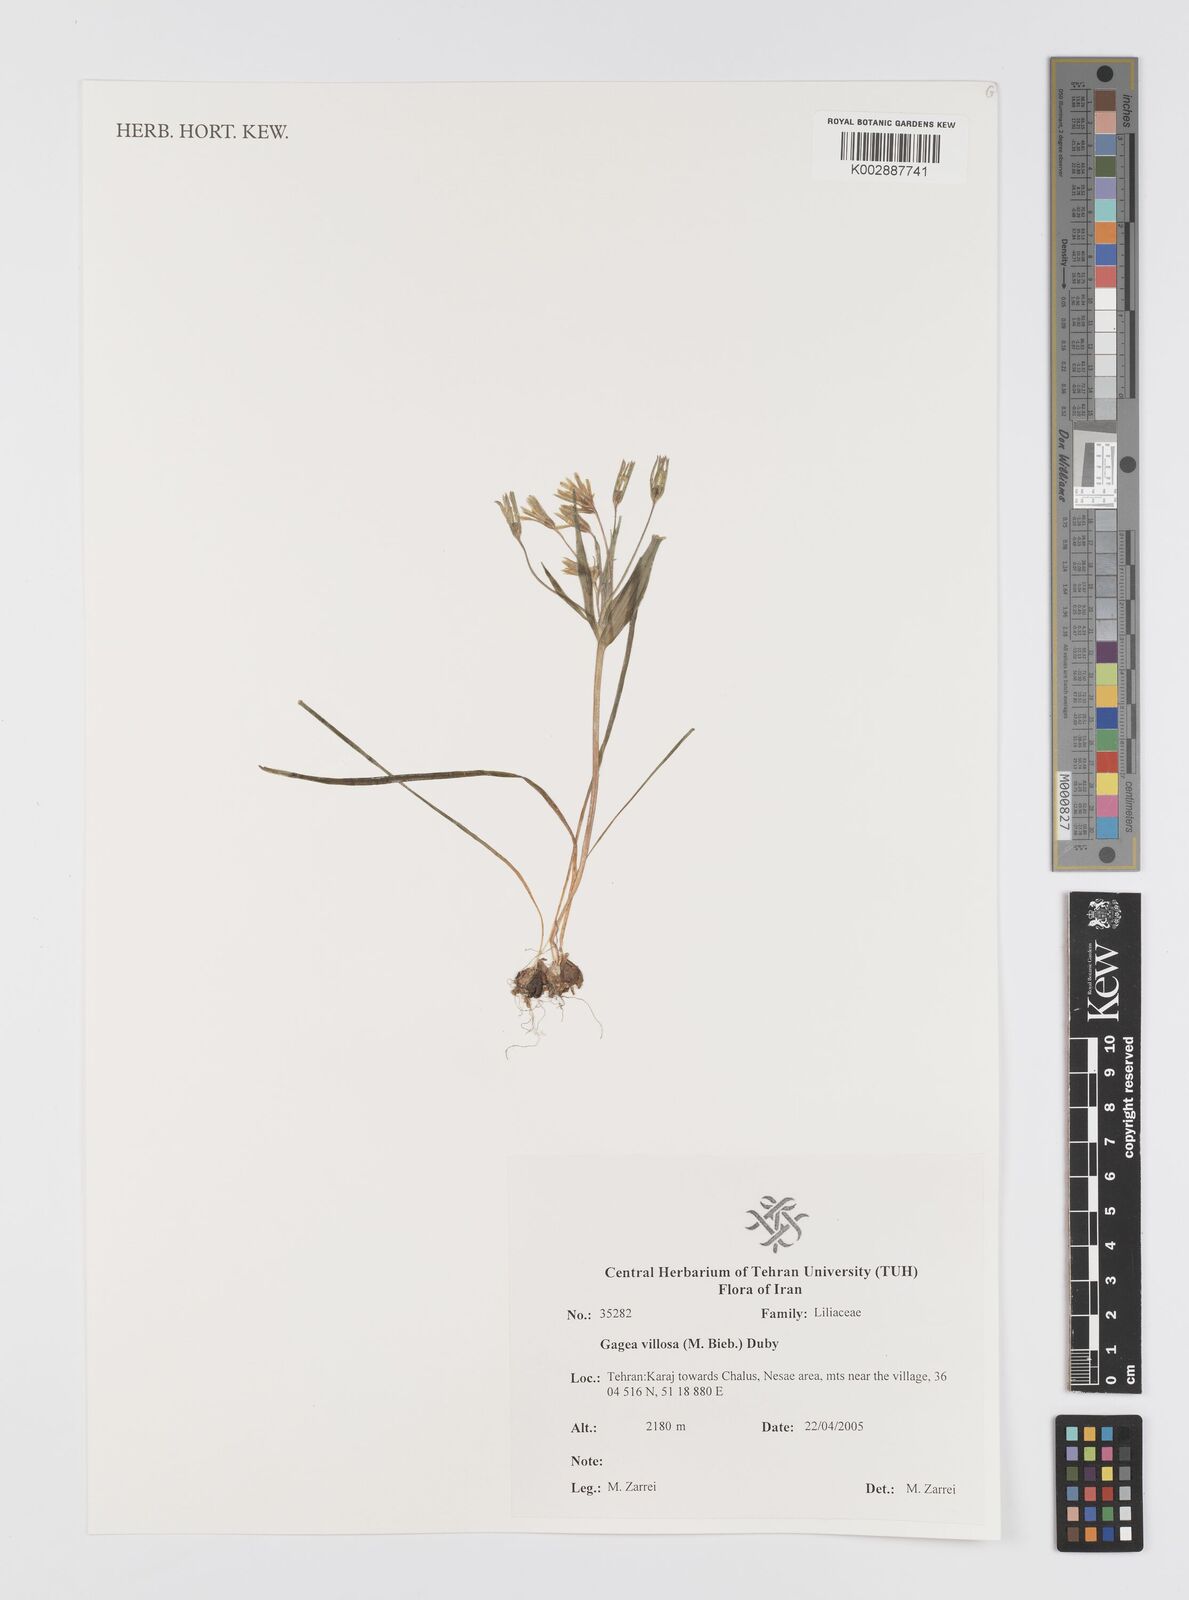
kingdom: Plantae
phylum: Tracheophyta
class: Liliopsida
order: Liliales
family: Liliaceae
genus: Gagea
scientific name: Gagea villosa
